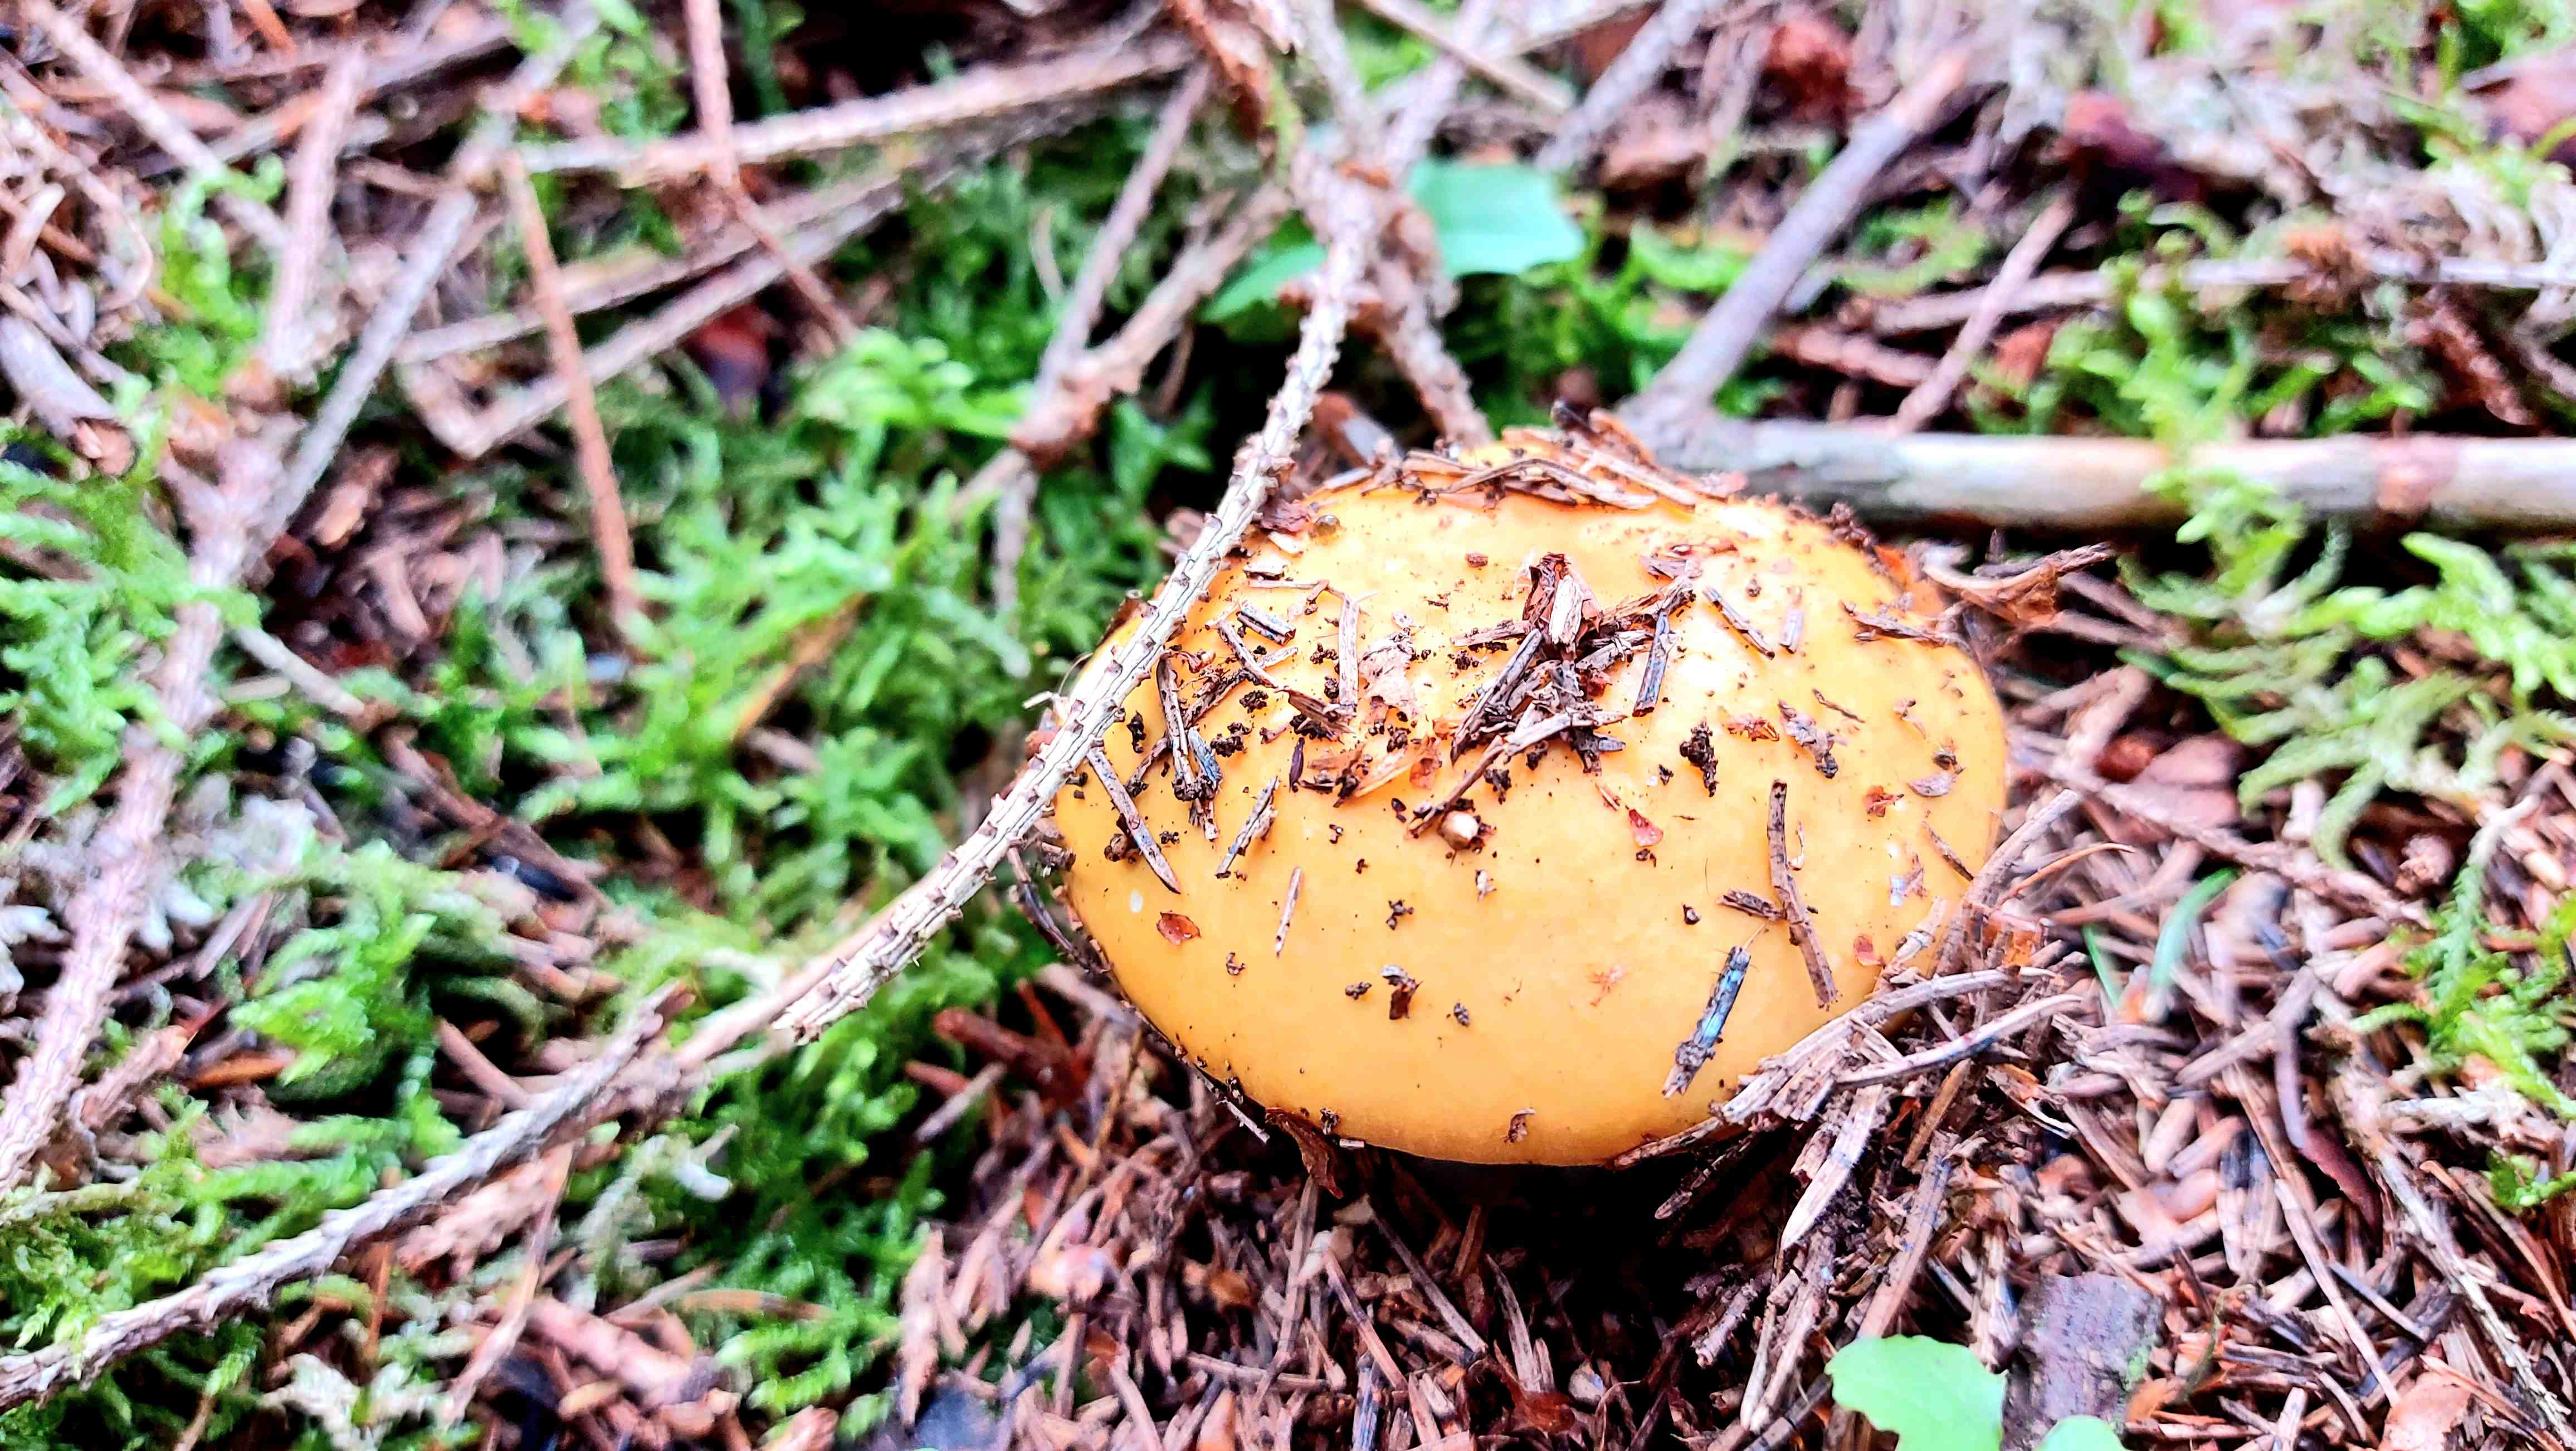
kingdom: Fungi
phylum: Basidiomycota
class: Agaricomycetes
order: Russulales
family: Russulaceae
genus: Russula
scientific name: Russula ochroleuca
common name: okkergul skørhat
